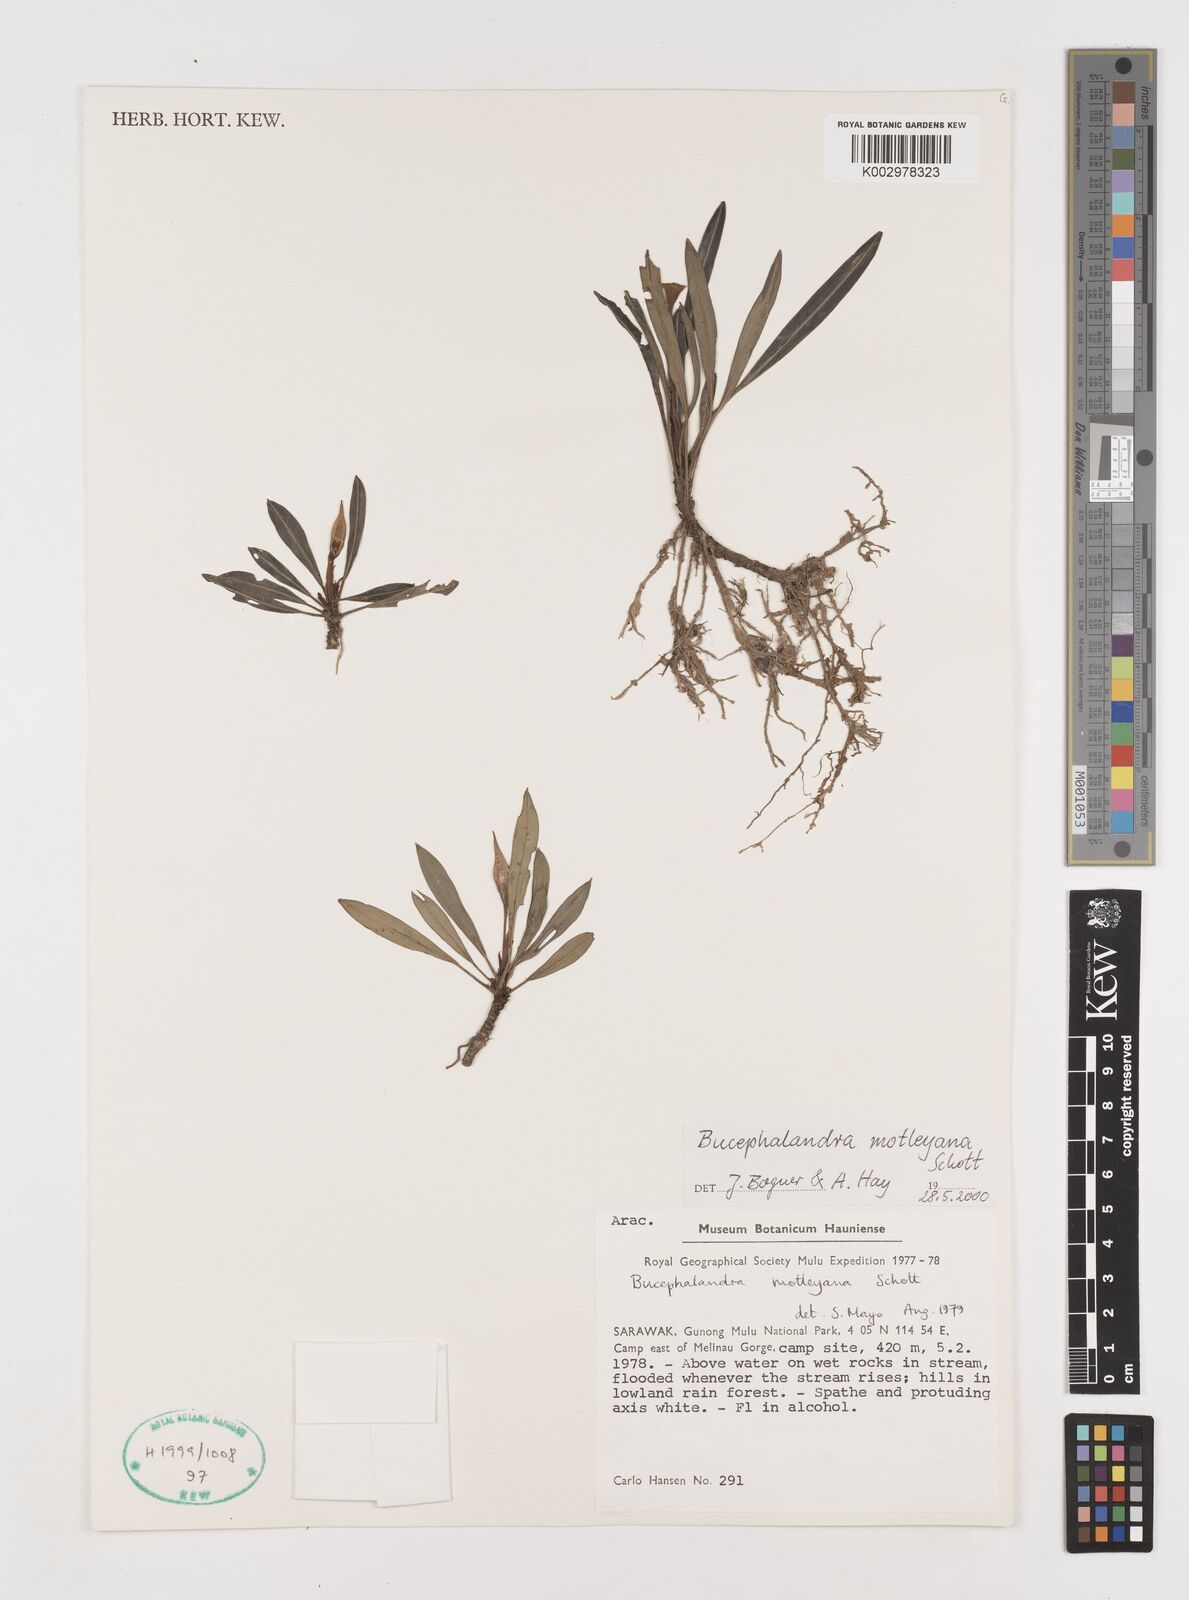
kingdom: Plantae
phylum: Tracheophyta
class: Liliopsida
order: Alismatales
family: Araceae
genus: Bucephalandra
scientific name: Bucephalandra motleyana
